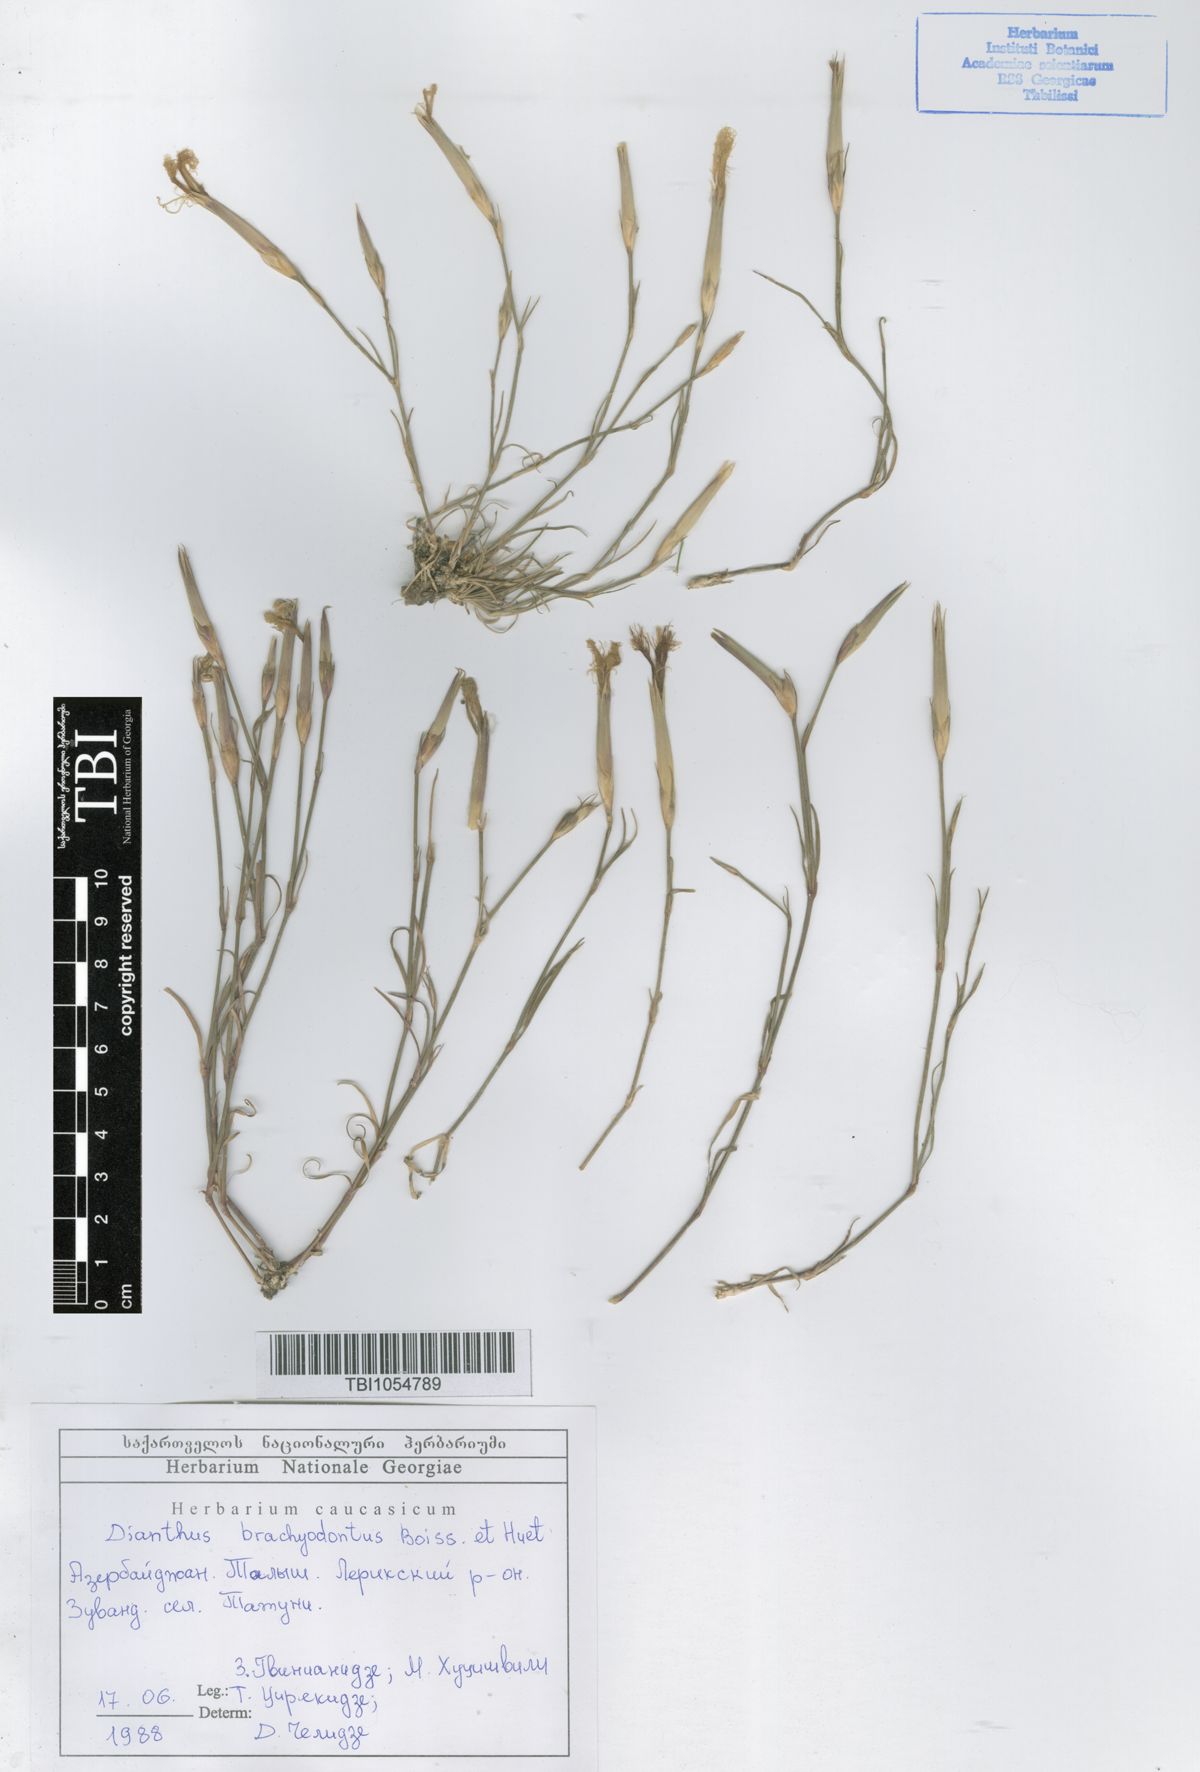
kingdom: Plantae
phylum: Tracheophyta
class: Magnoliopsida
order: Caryophyllales
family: Caryophyllaceae
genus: Dianthus
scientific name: Dianthus
